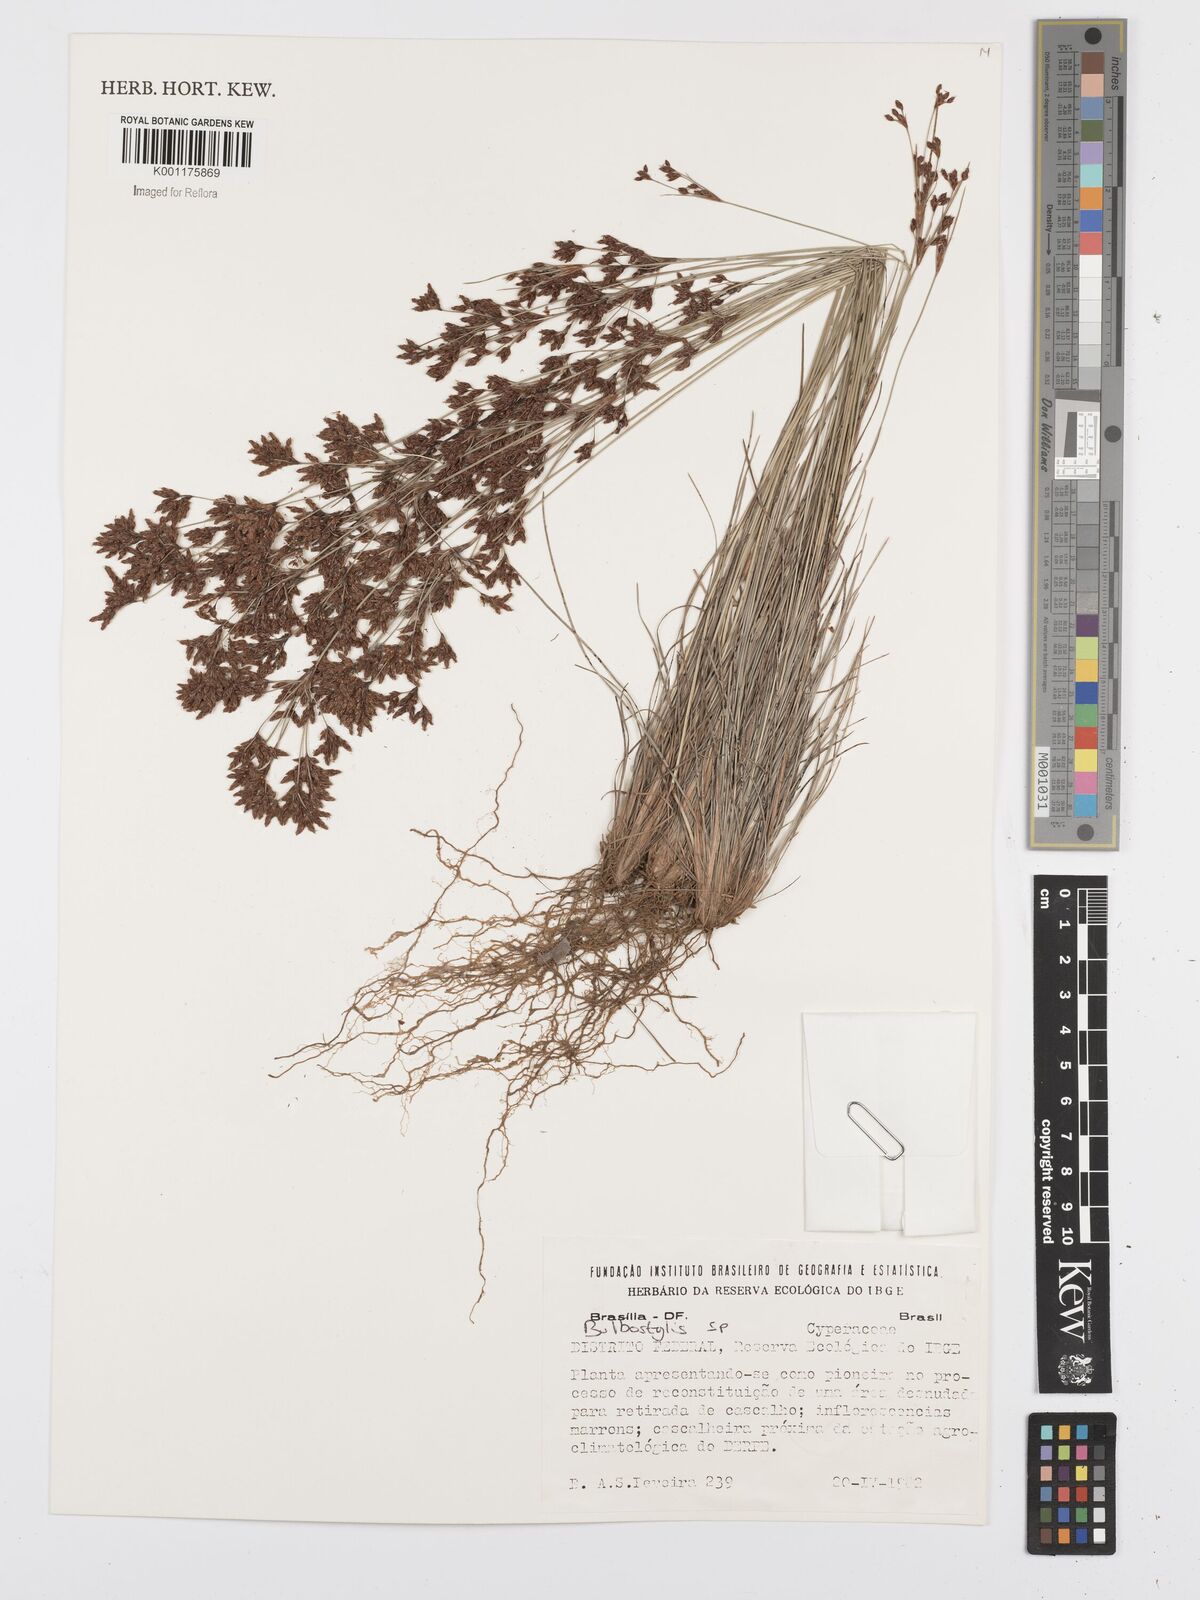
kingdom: Plantae
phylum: Tracheophyta
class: Liliopsida
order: Poales
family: Cyperaceae
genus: Bulbostylis
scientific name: Bulbostylis
